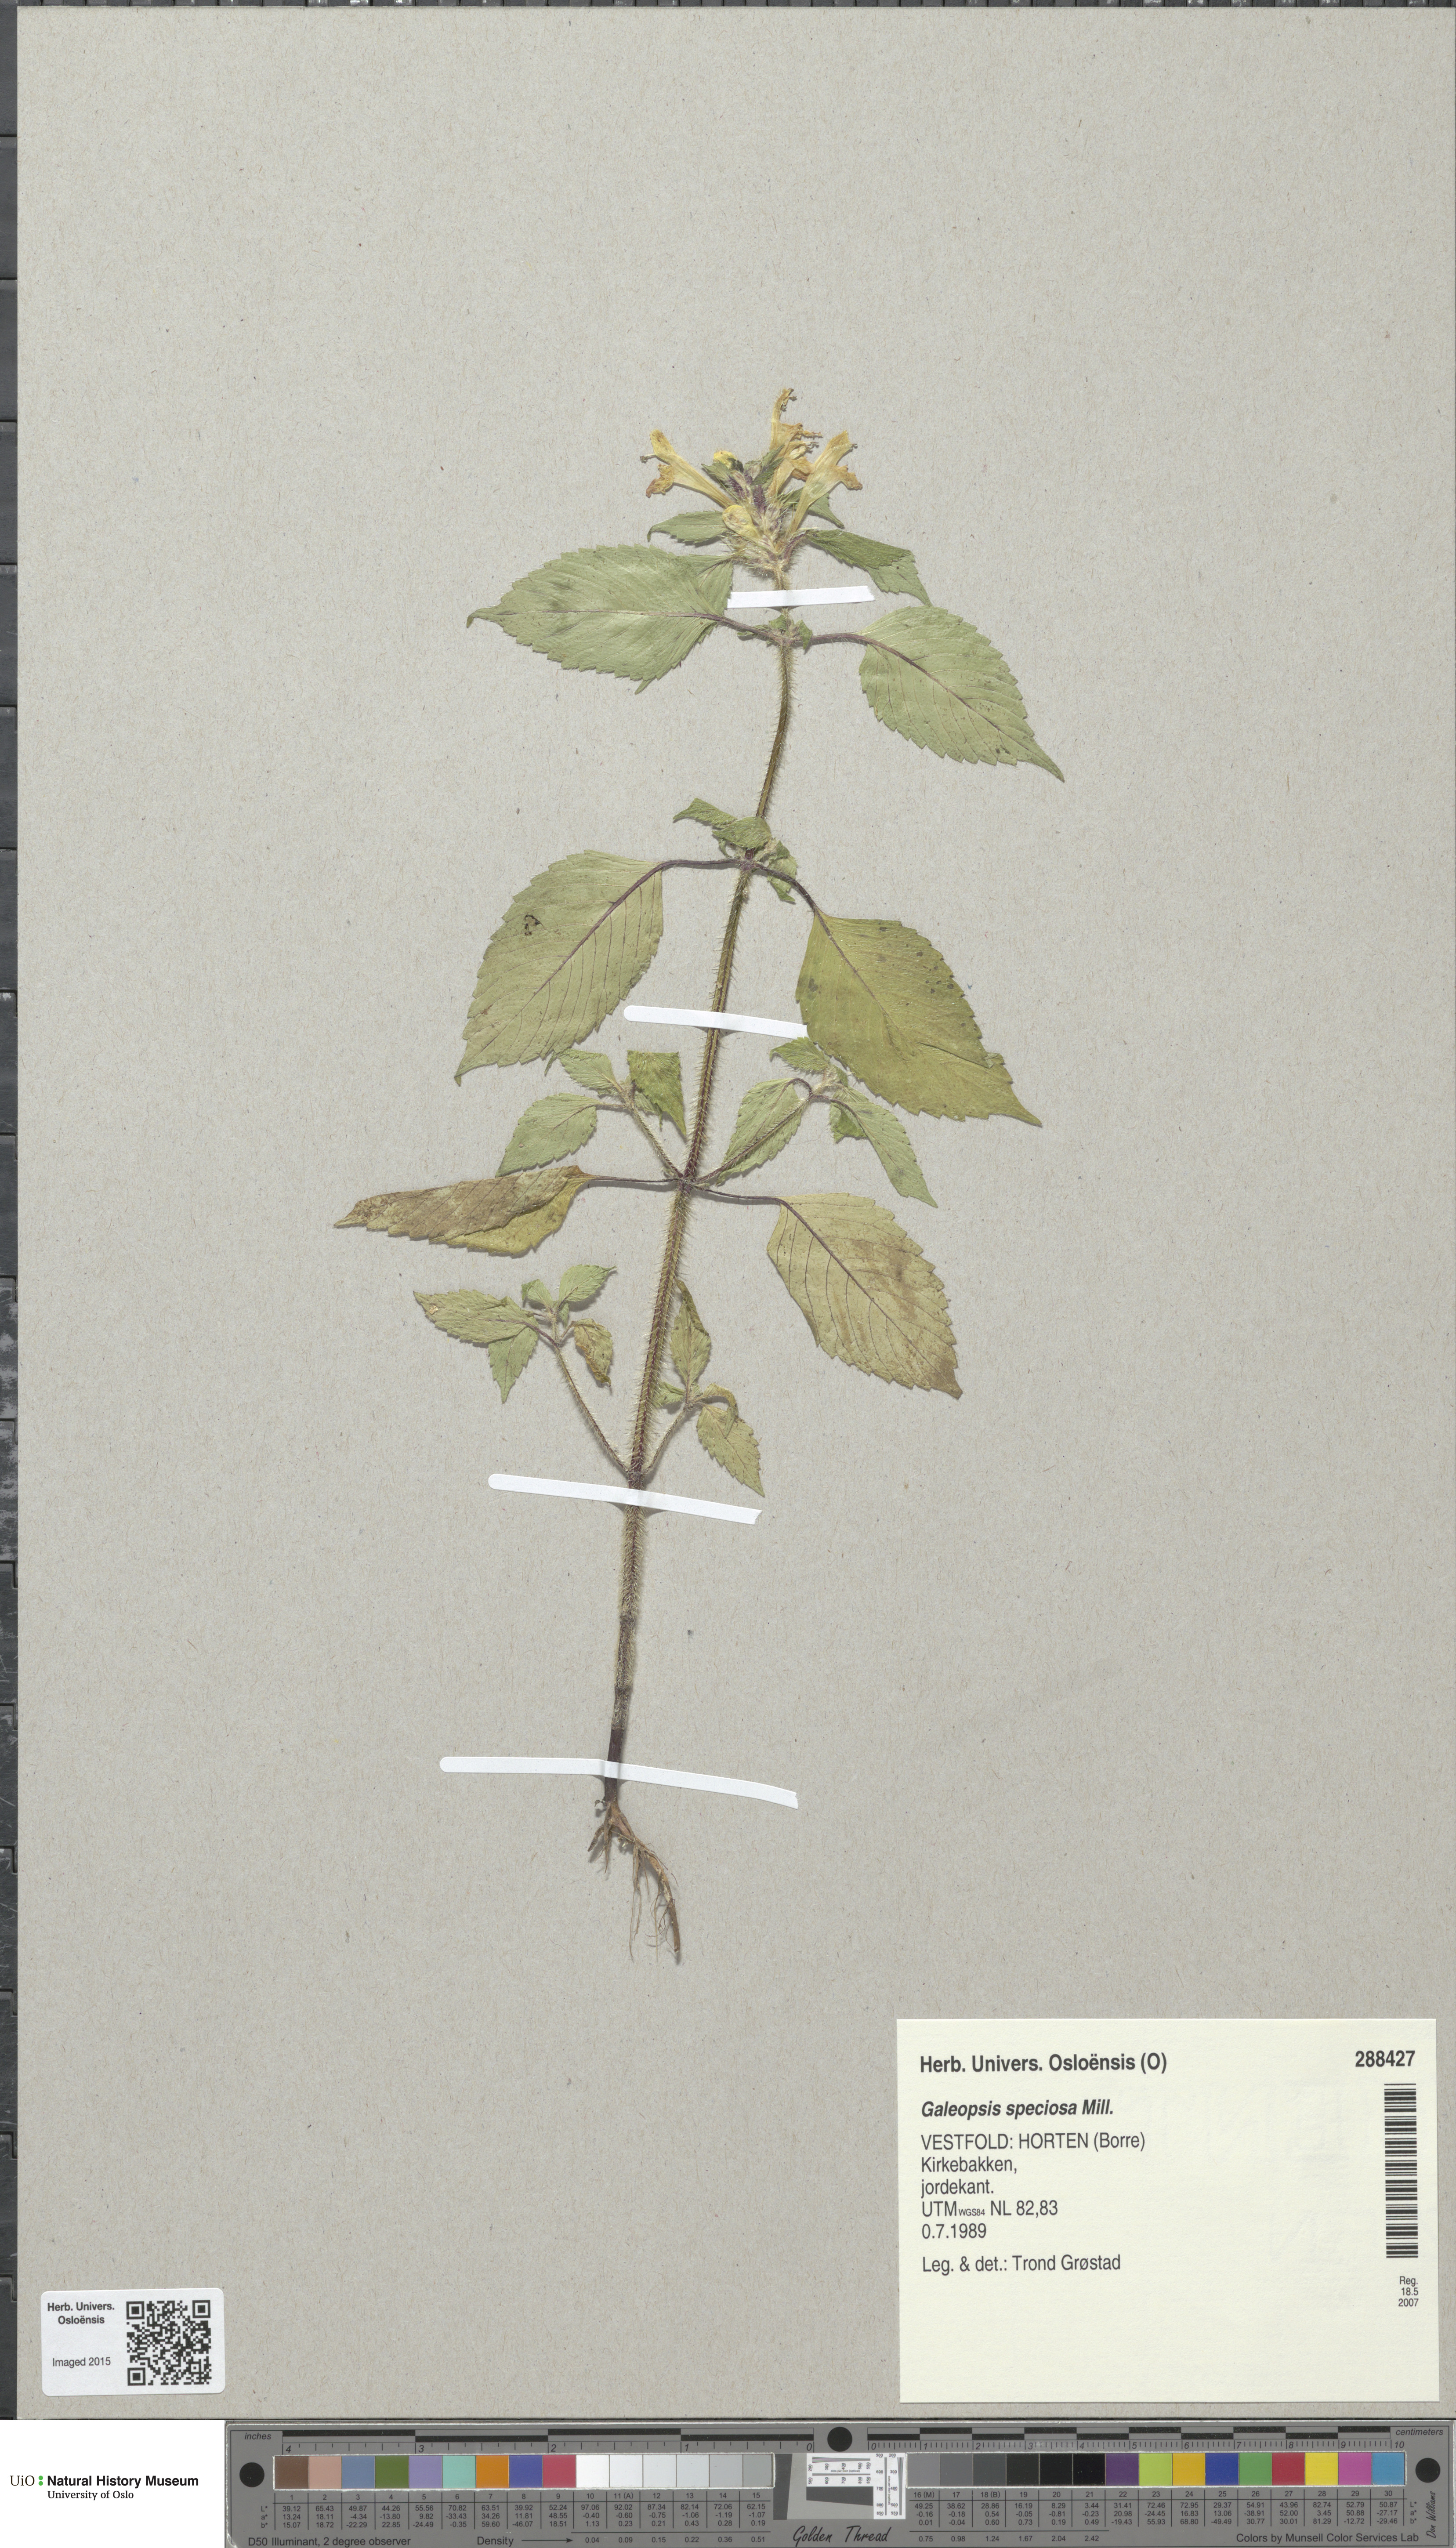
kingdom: Plantae
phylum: Tracheophyta
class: Magnoliopsida
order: Lamiales
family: Lamiaceae
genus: Galeopsis
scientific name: Galeopsis speciosa
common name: Large-flowered hemp-nettle
